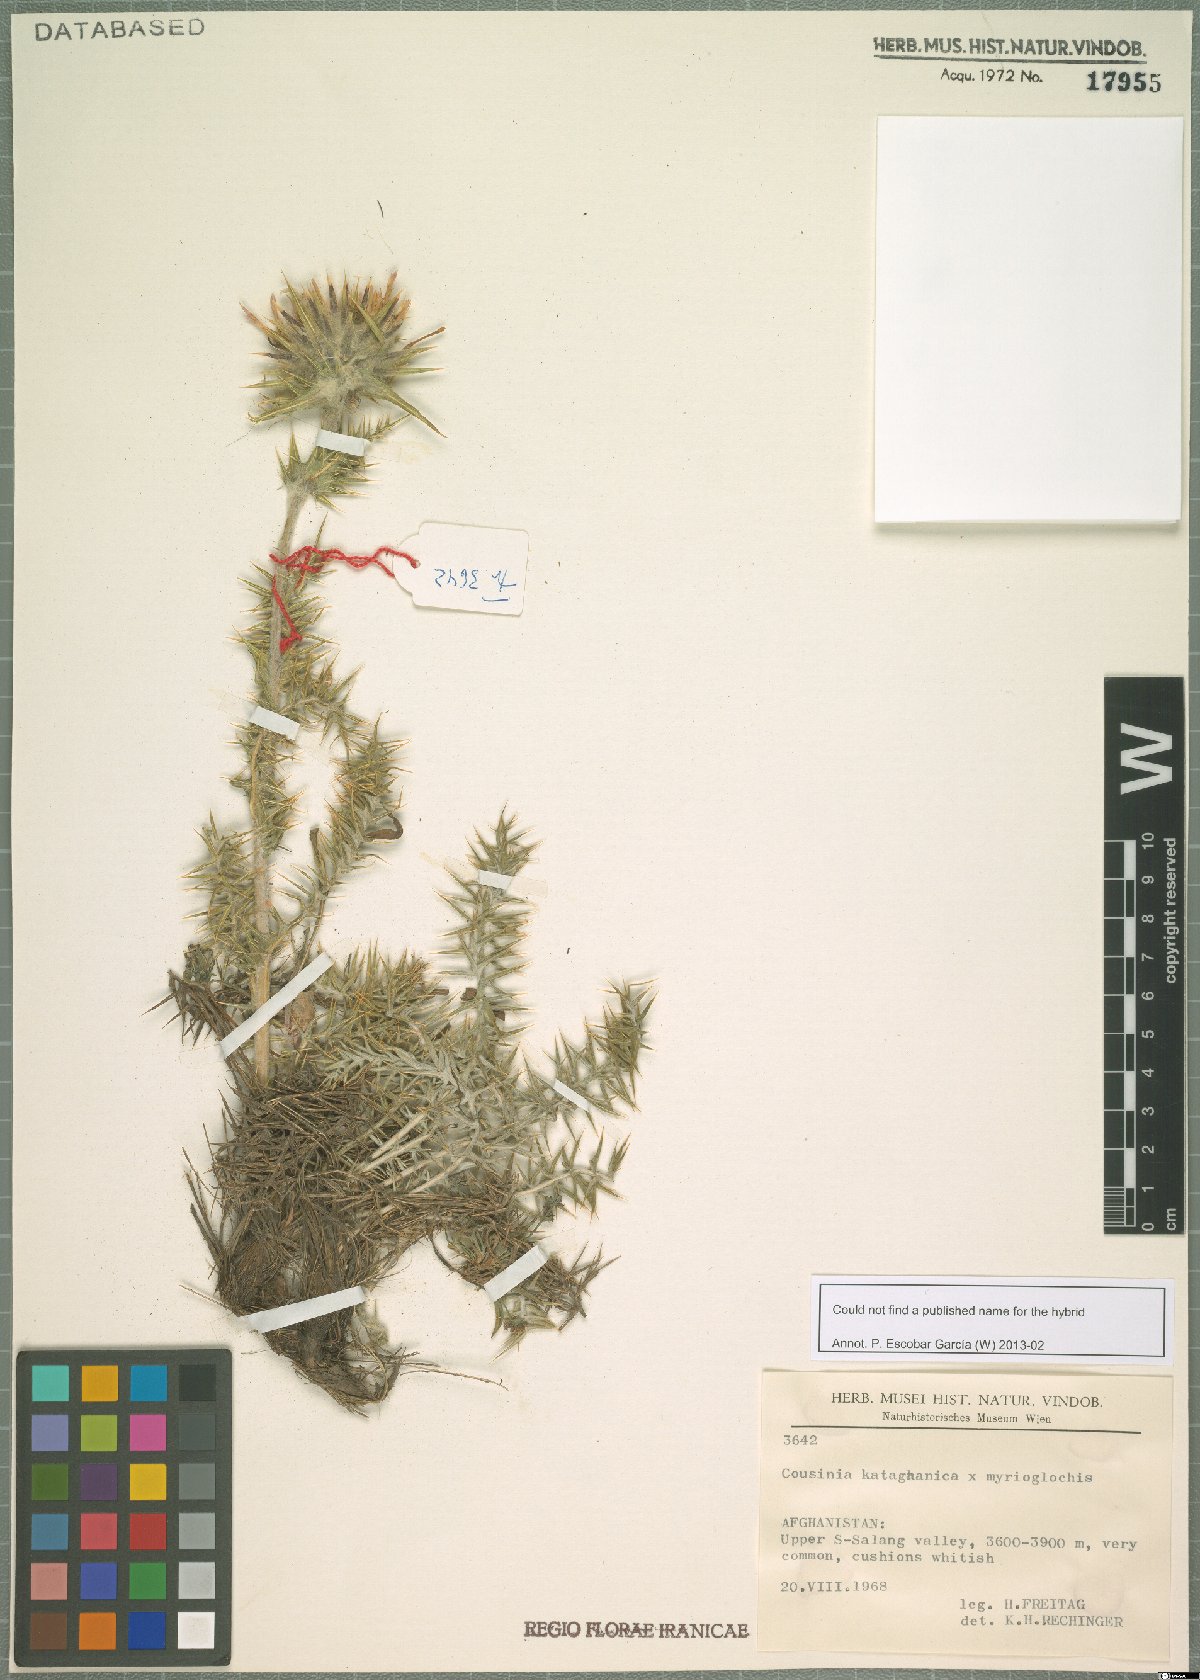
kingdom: Plantae
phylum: Tracheophyta
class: Magnoliopsida
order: Asterales
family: Asteraceae
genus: Cousinia
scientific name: Cousinia kataghanica
